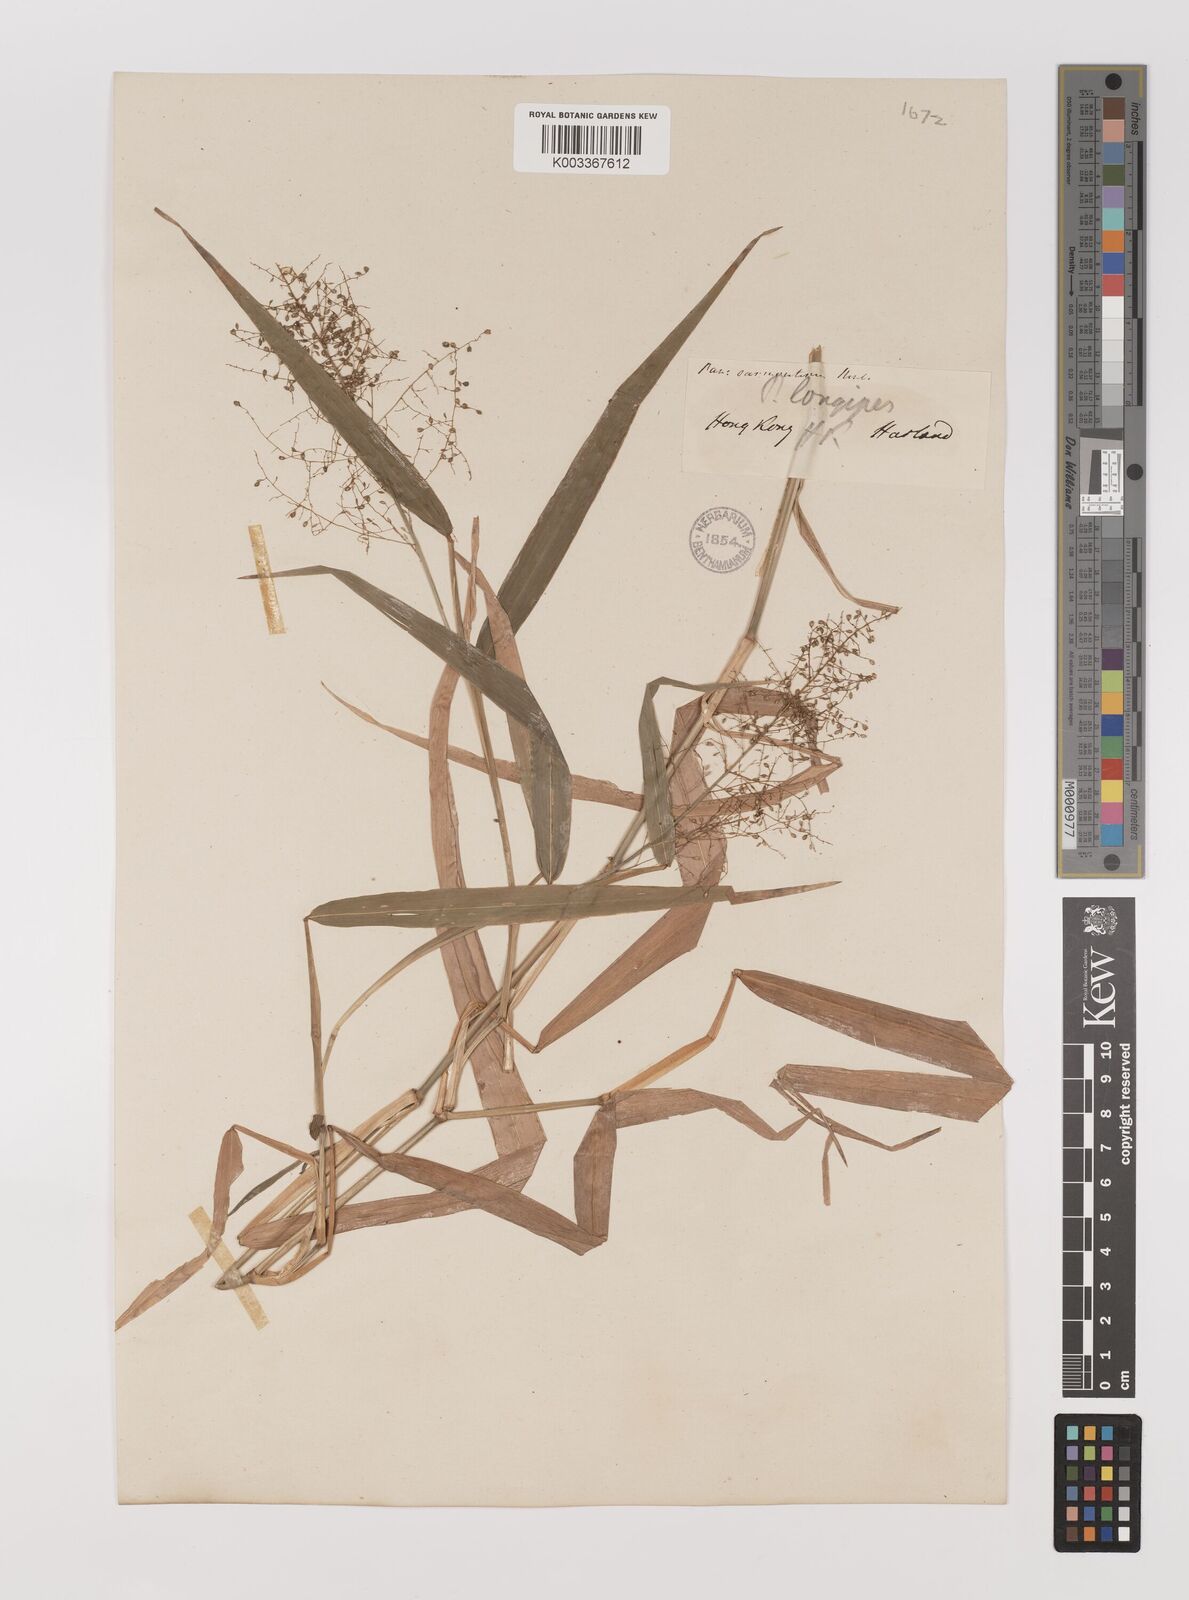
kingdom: Plantae
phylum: Tracheophyta
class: Liliopsida
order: Poales
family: Poaceae
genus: Panicum
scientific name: Panicum incomtum
